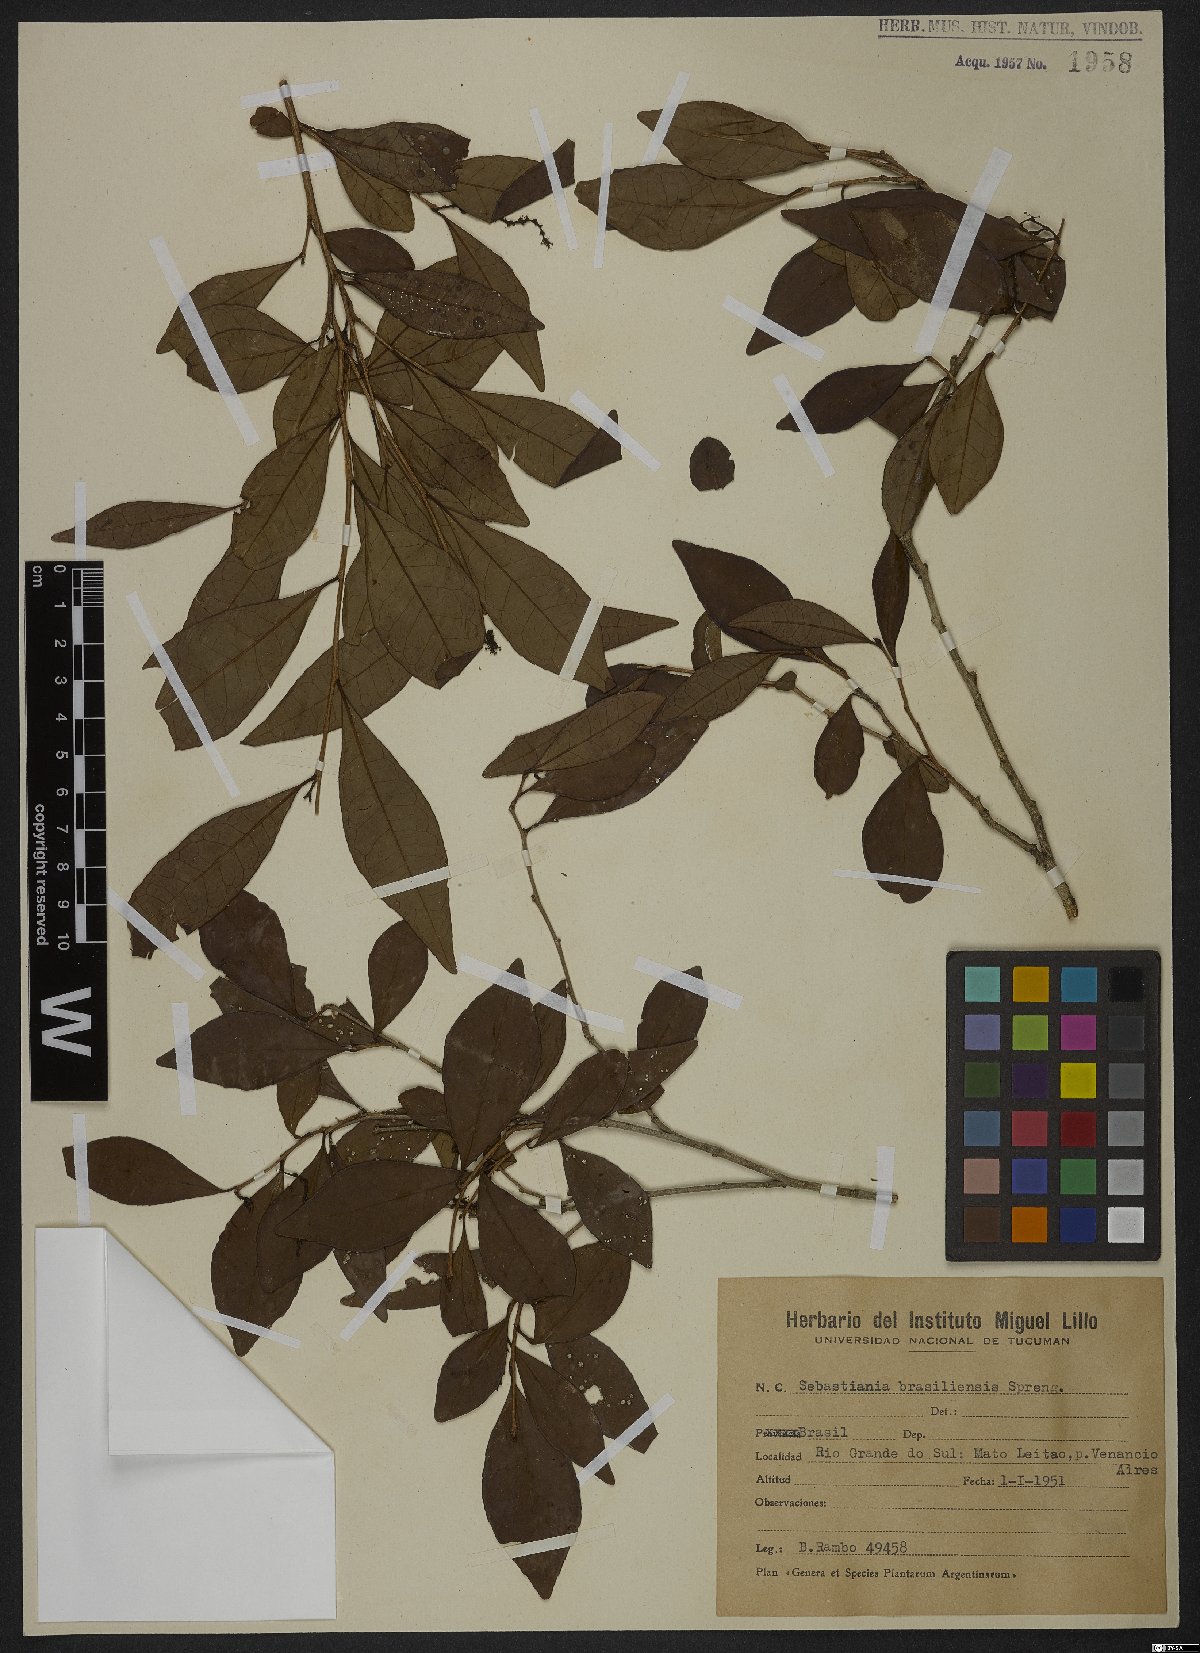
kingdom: Plantae
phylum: Tracheophyta
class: Magnoliopsida
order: Malpighiales
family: Euphorbiaceae
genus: Sebastiania
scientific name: Sebastiania brasiliensis
